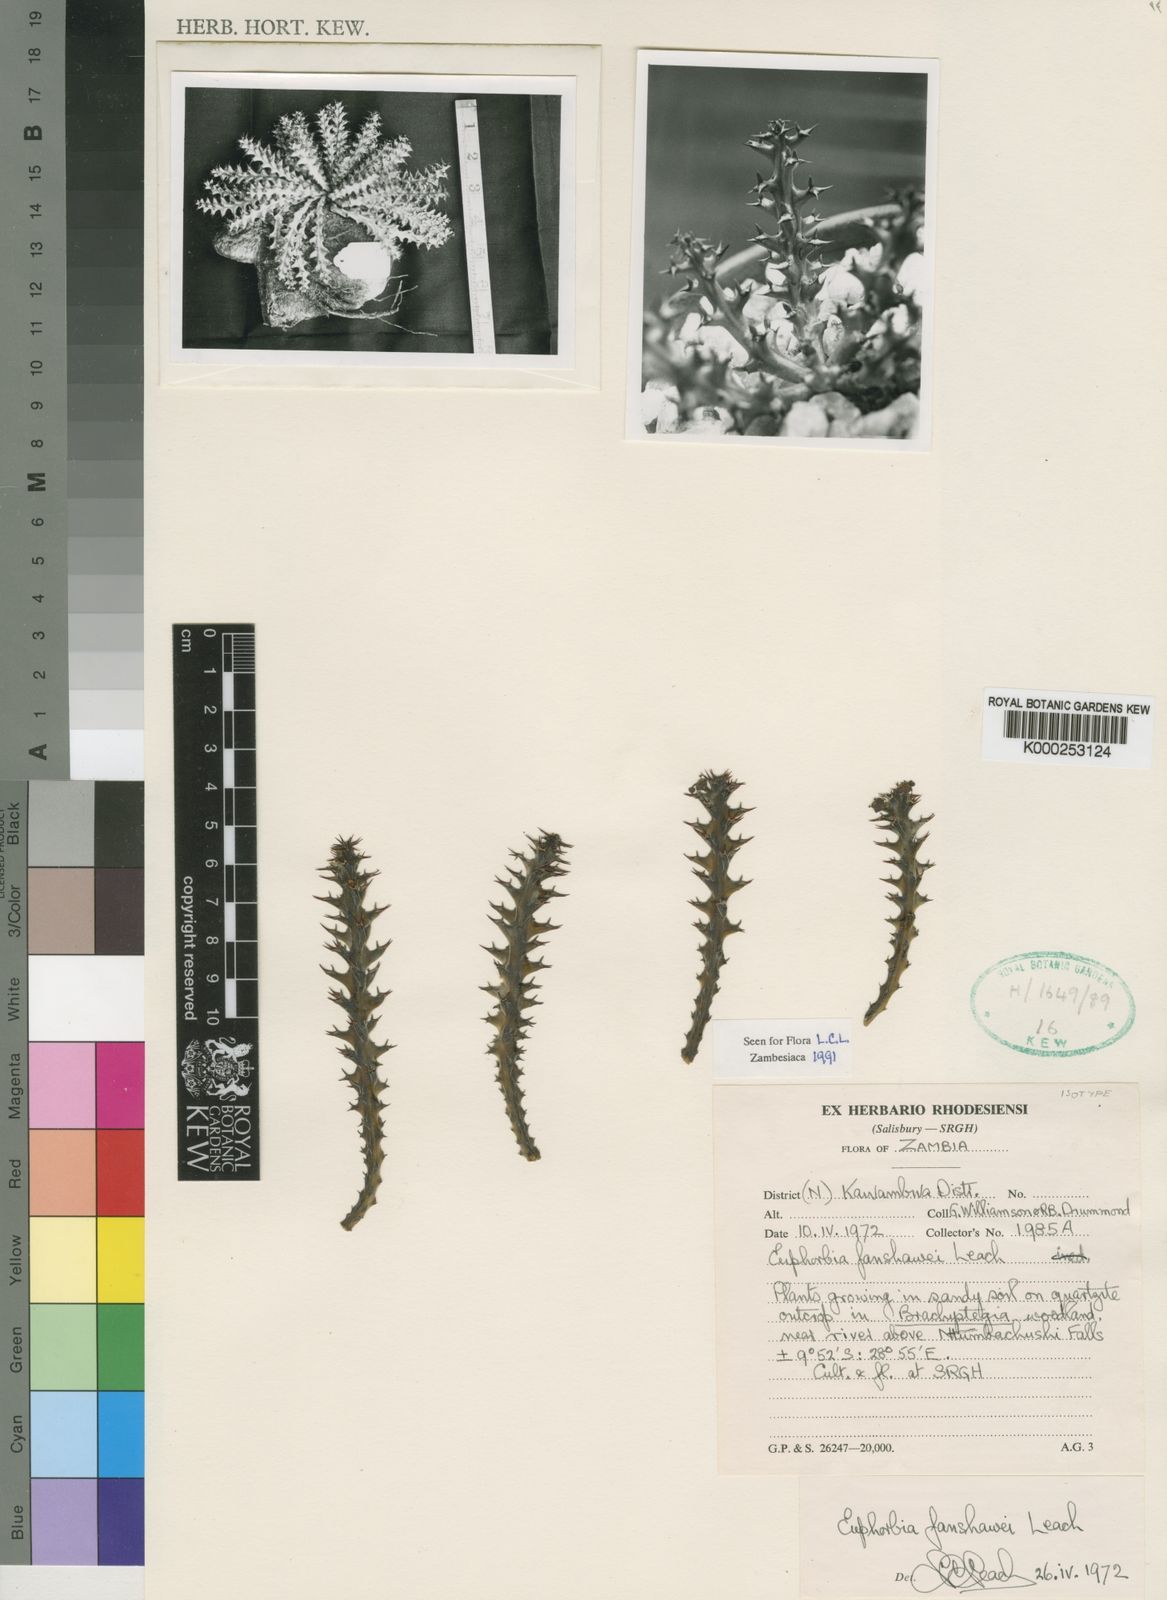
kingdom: Plantae
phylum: Tracheophyta
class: Magnoliopsida
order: Malpighiales
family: Euphorbiaceae
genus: Euphorbia
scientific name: Euphorbia fanshawei
